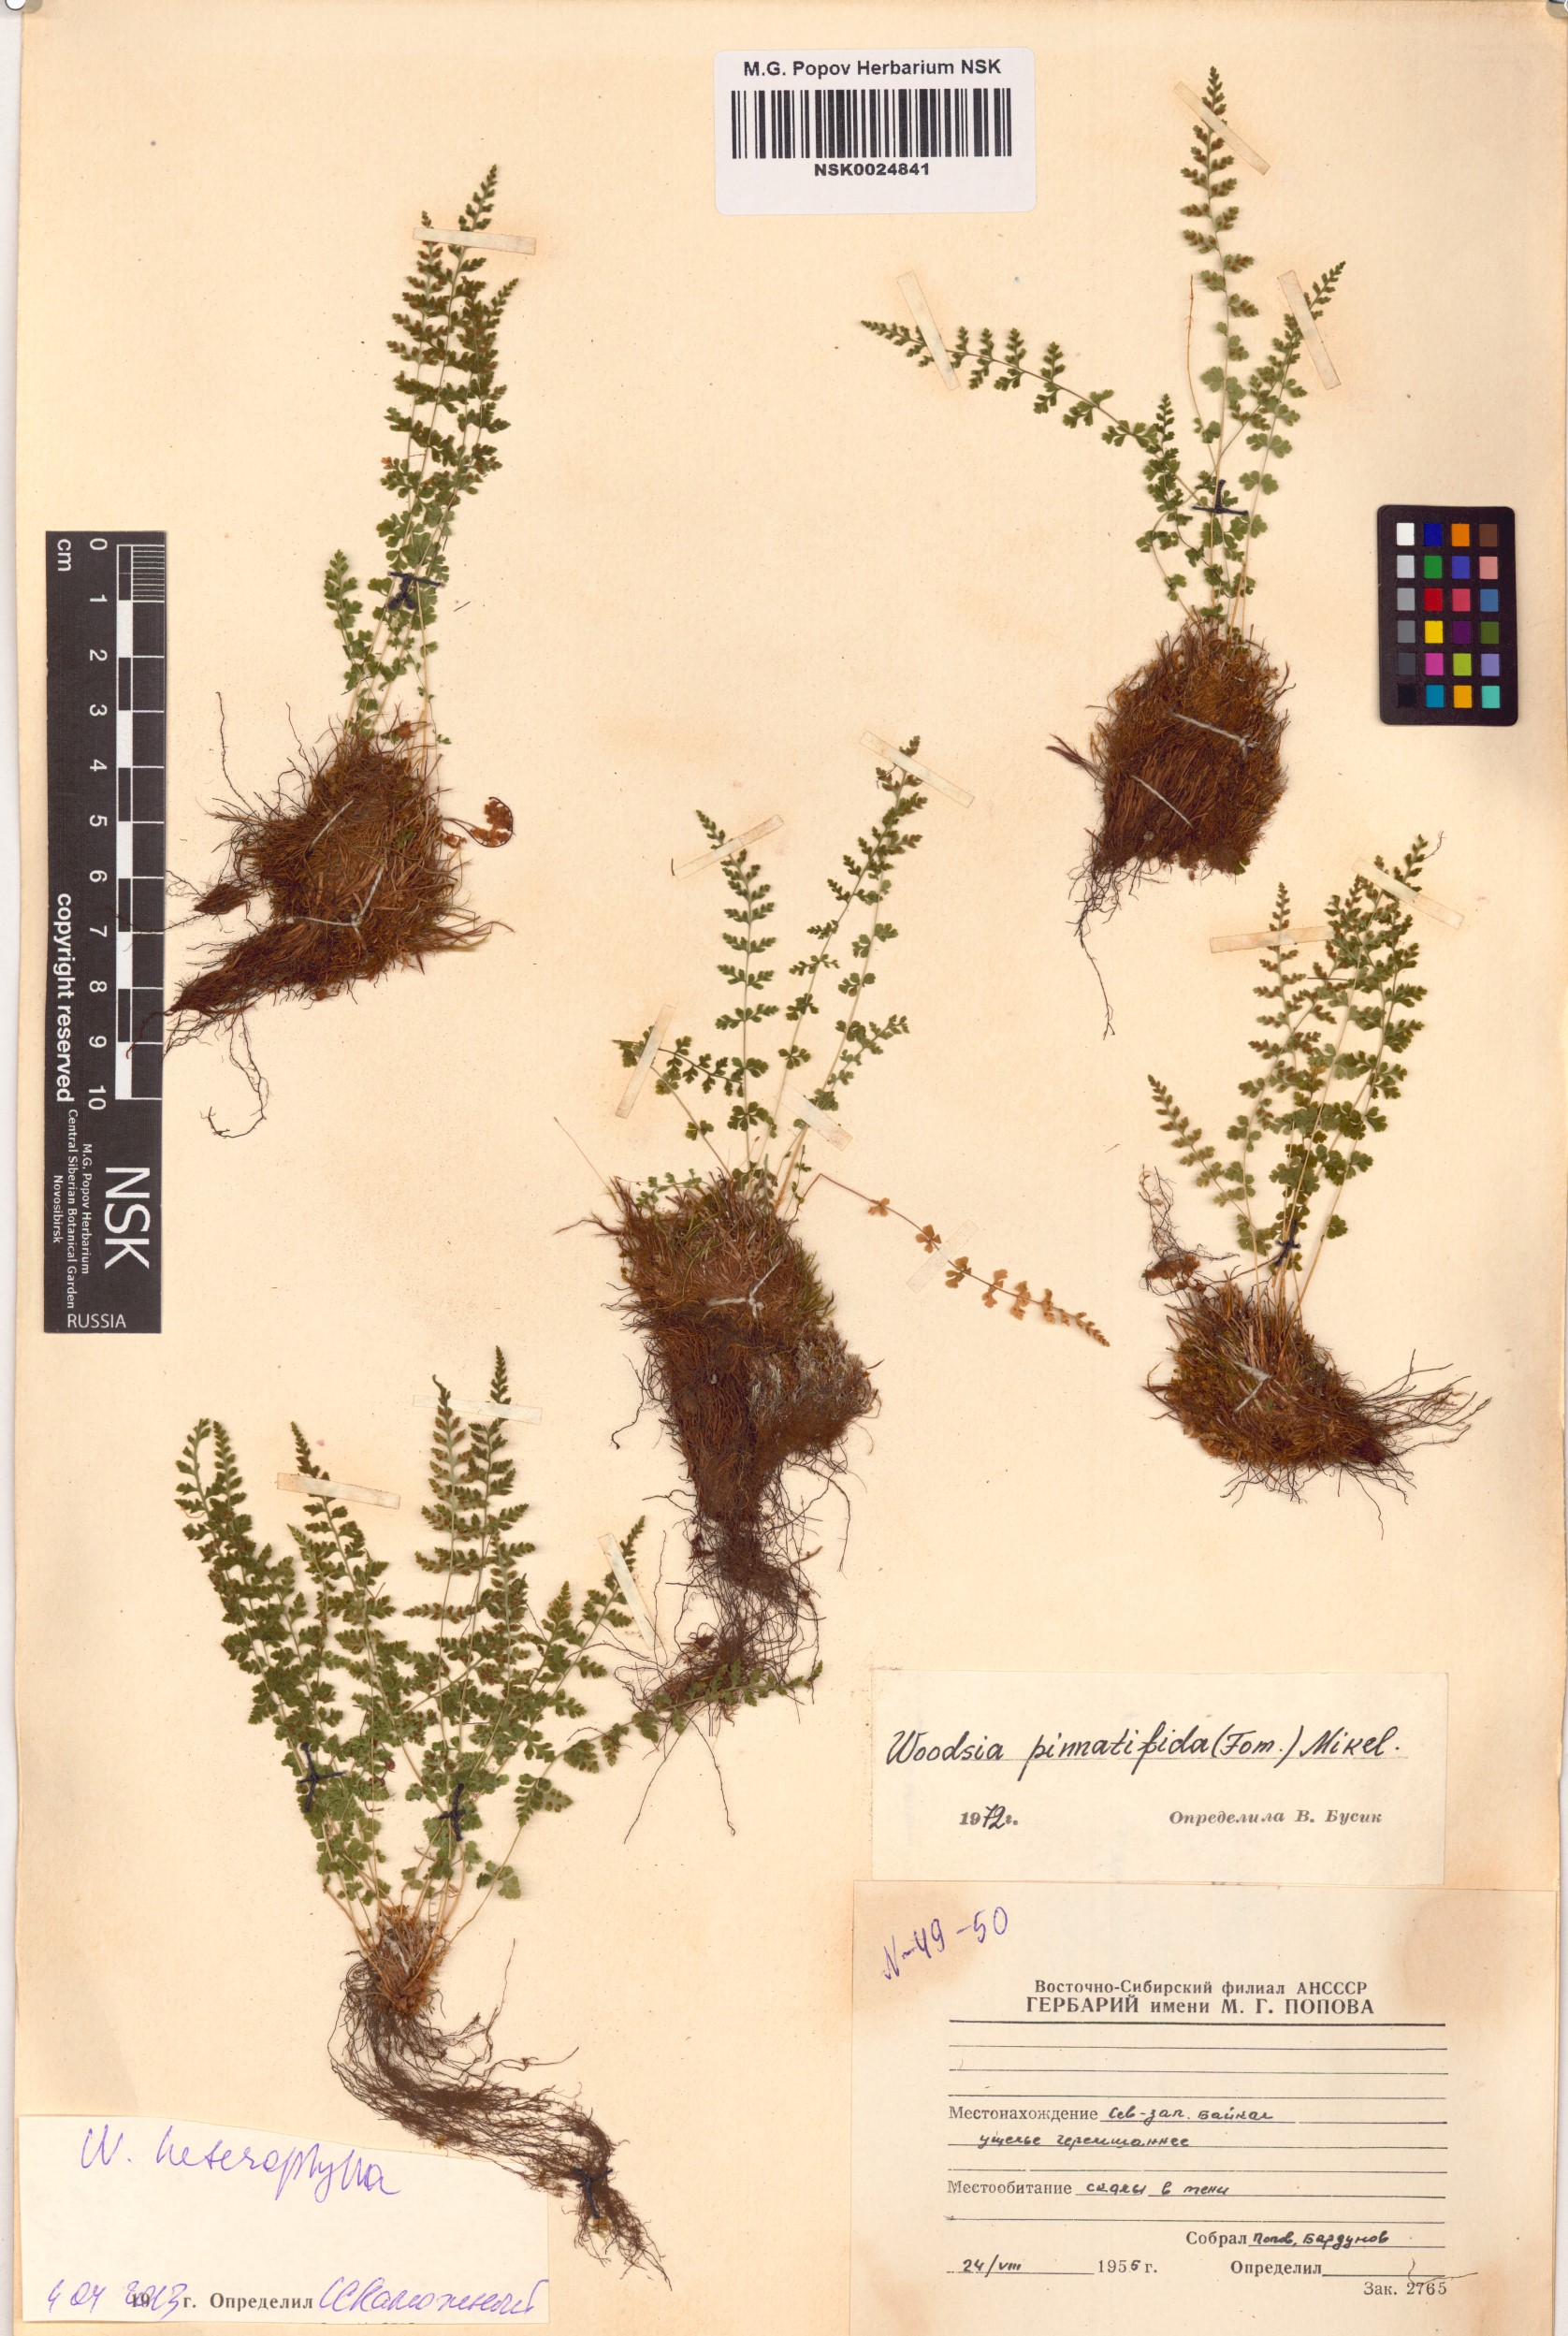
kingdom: Plantae
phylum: Tracheophyta
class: Polypodiopsida
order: Polypodiales
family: Woodsiaceae
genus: Woodsia
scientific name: Woodsia pulchella
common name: Graceful woodsia
